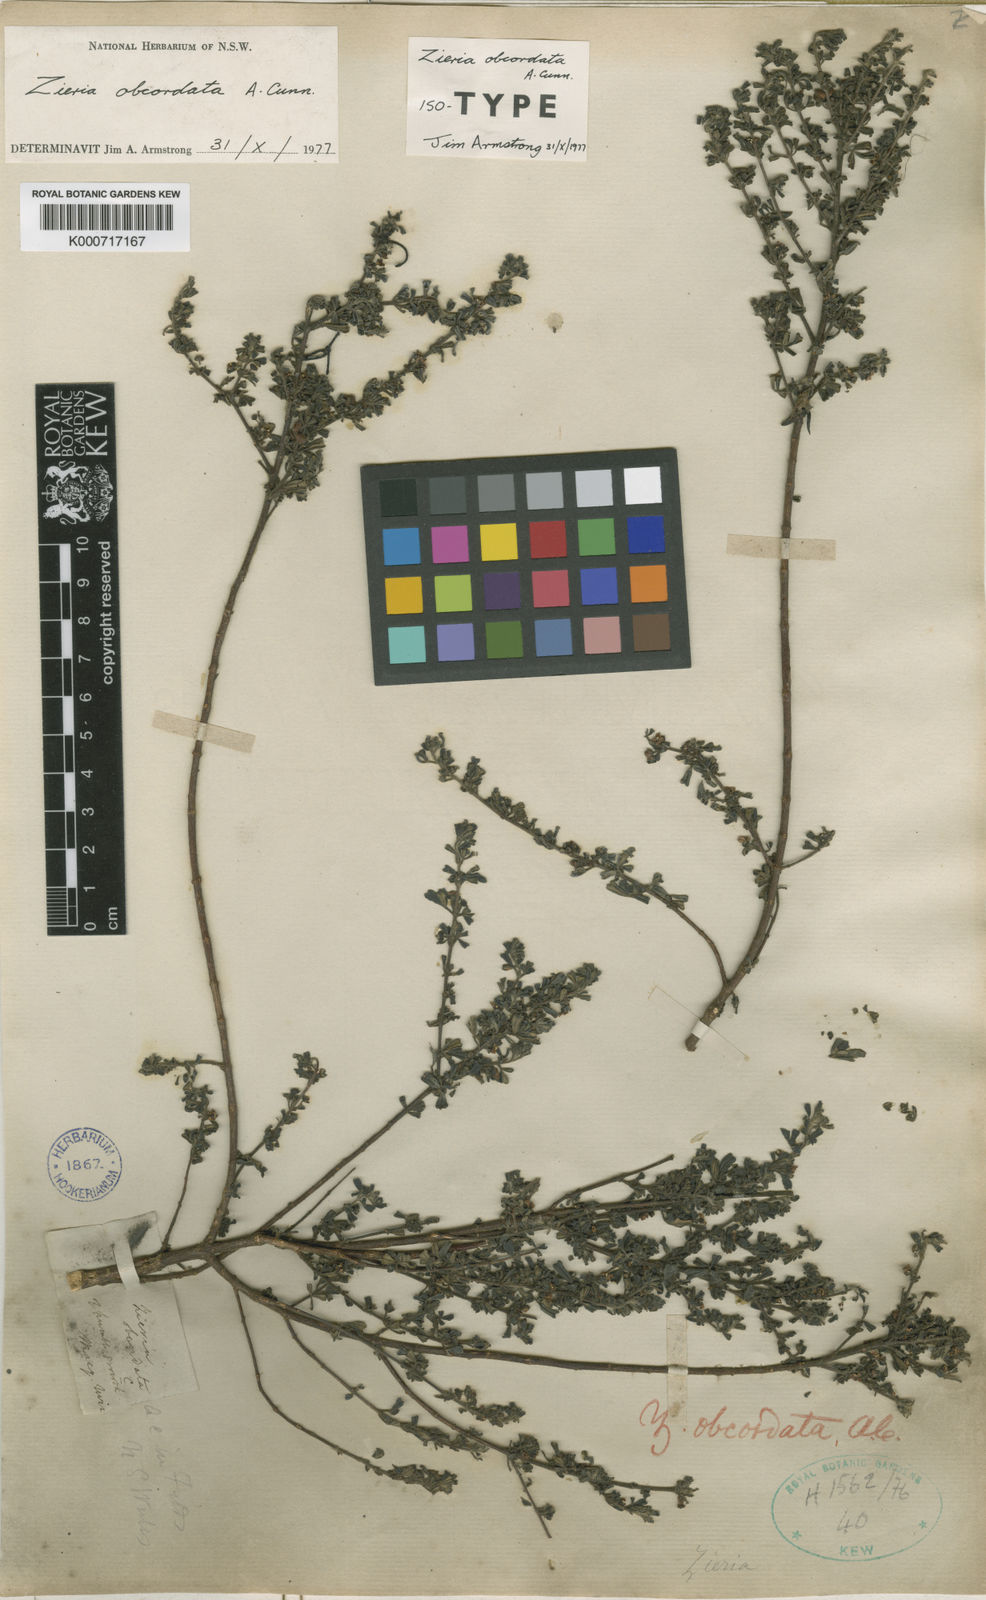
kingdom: Plantae
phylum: Tracheophyta
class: Magnoliopsida
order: Sapindales
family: Rutaceae
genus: Zieria
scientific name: Zieria obcordata
